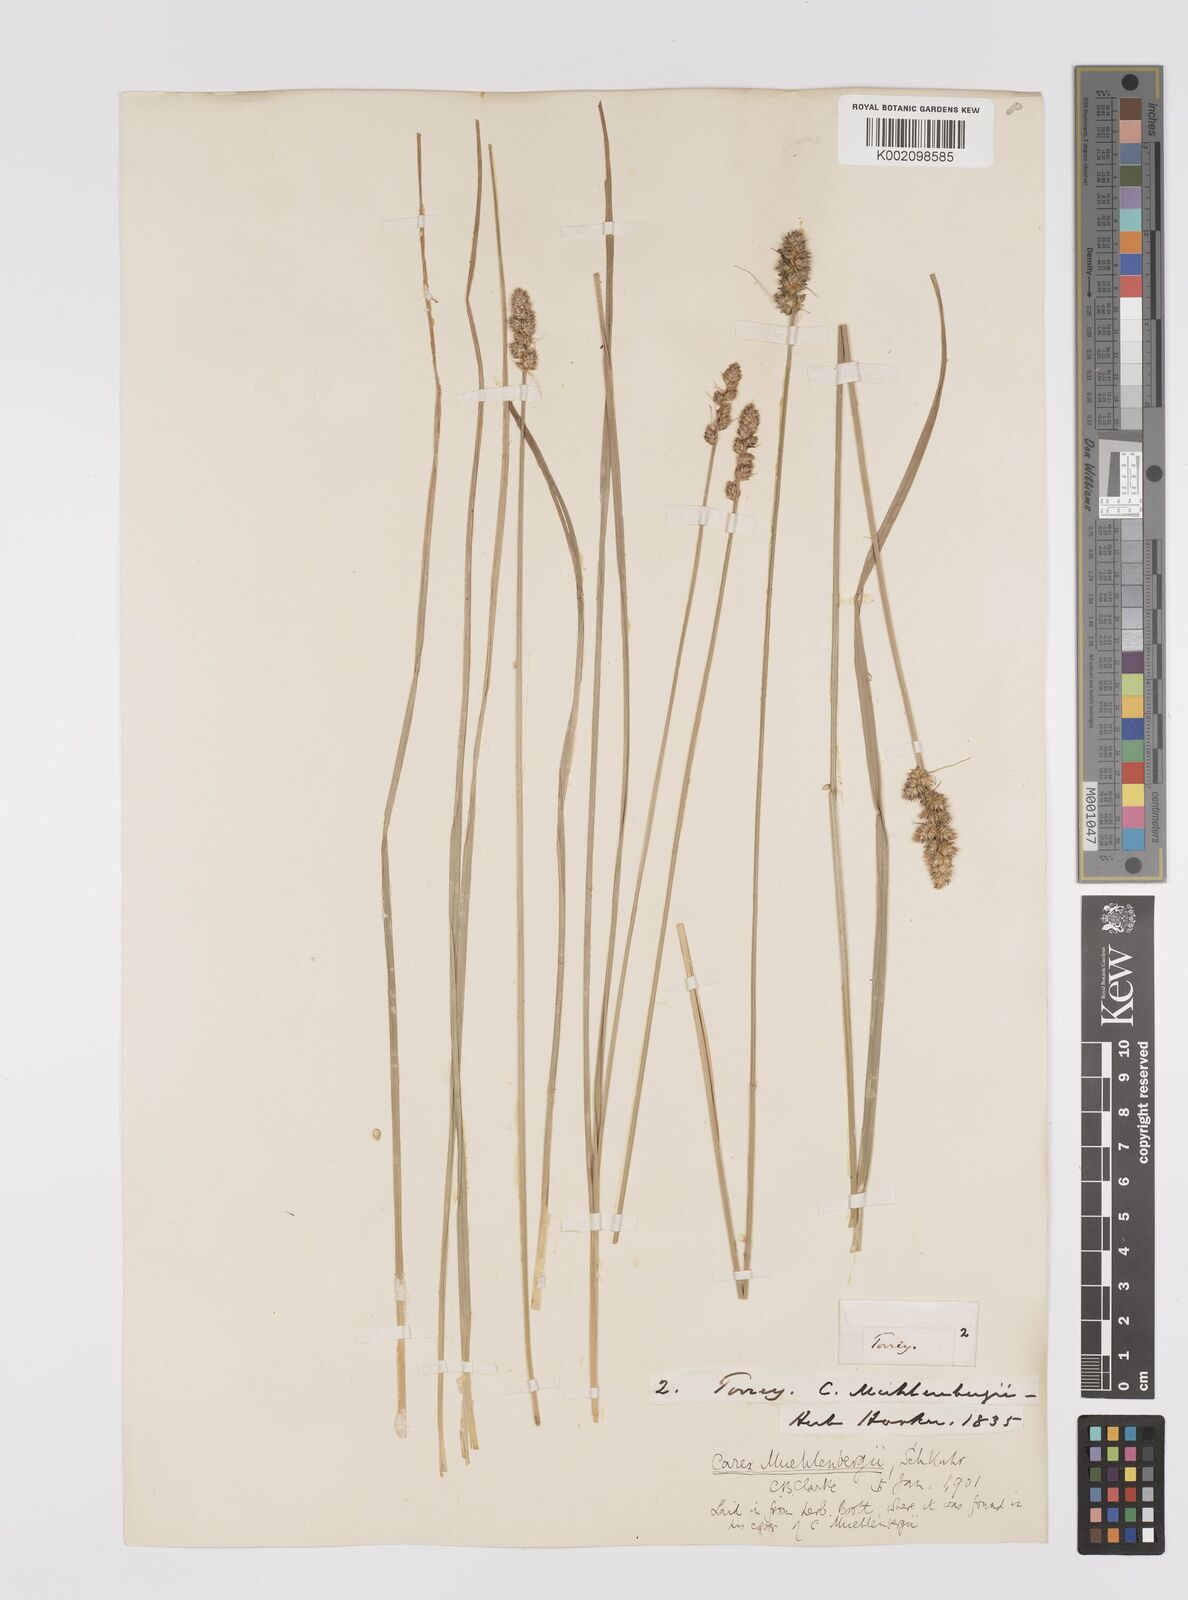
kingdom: Plantae
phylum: Tracheophyta
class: Liliopsida
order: Poales
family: Cyperaceae
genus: Carex
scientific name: Carex vulpinoidea
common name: American fox-sedge
